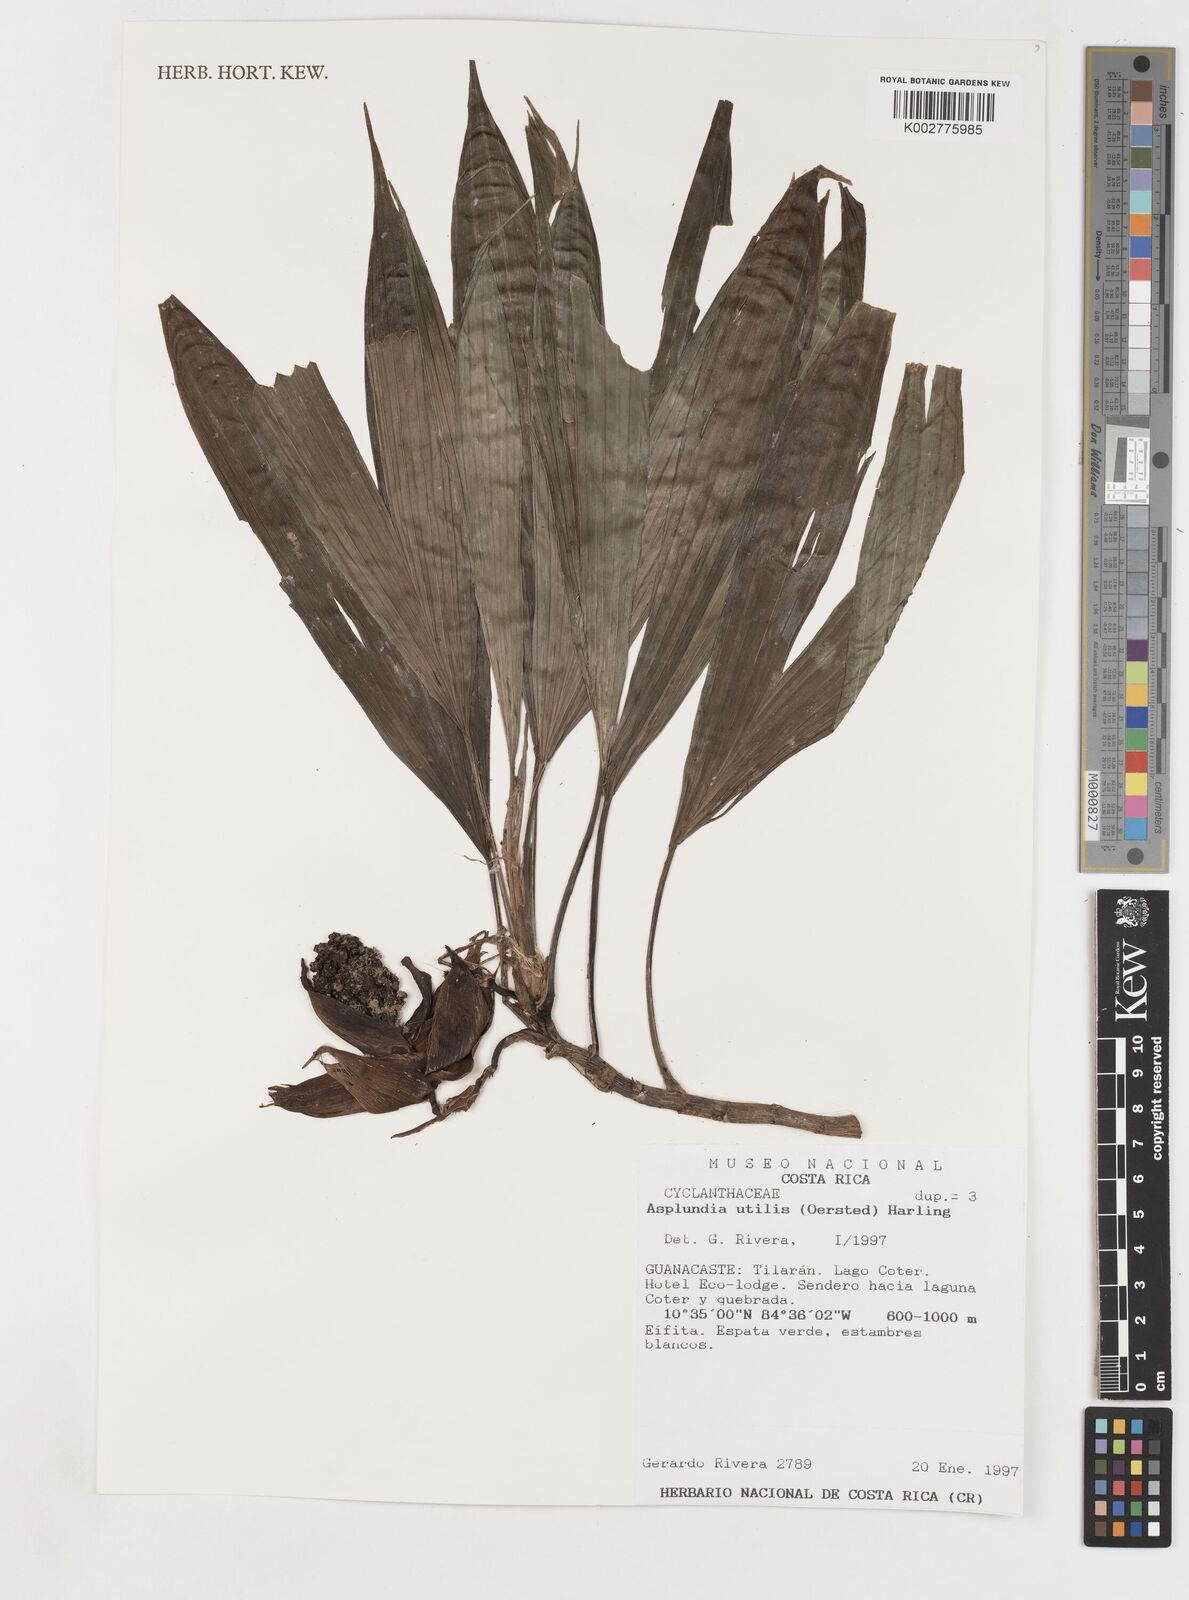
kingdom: Plantae
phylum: Tracheophyta
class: Liliopsida
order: Pandanales
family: Cyclanthaceae
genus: Asplundia
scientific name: Asplundia utilis
